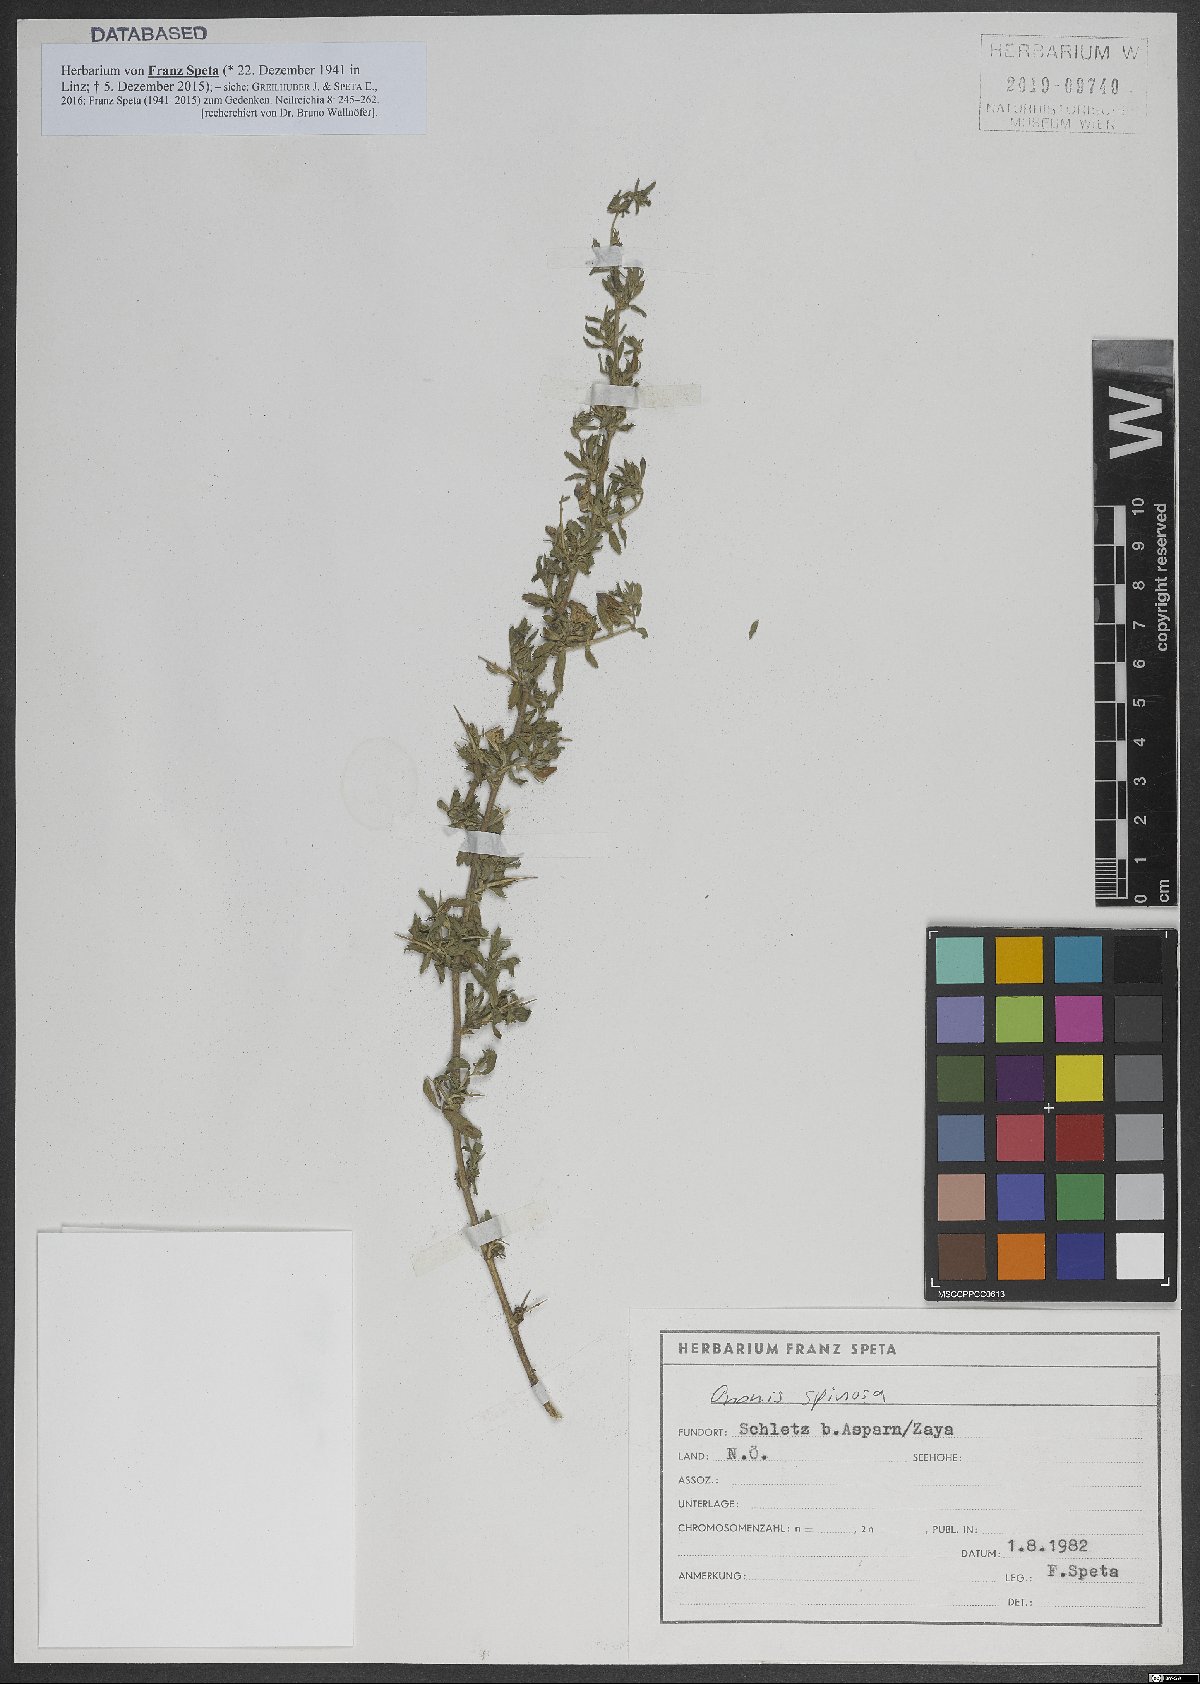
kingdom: Plantae
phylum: Tracheophyta
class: Magnoliopsida
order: Fabales
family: Fabaceae
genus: Ononis
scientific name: Ononis spinosa
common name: Spiny restharrow
